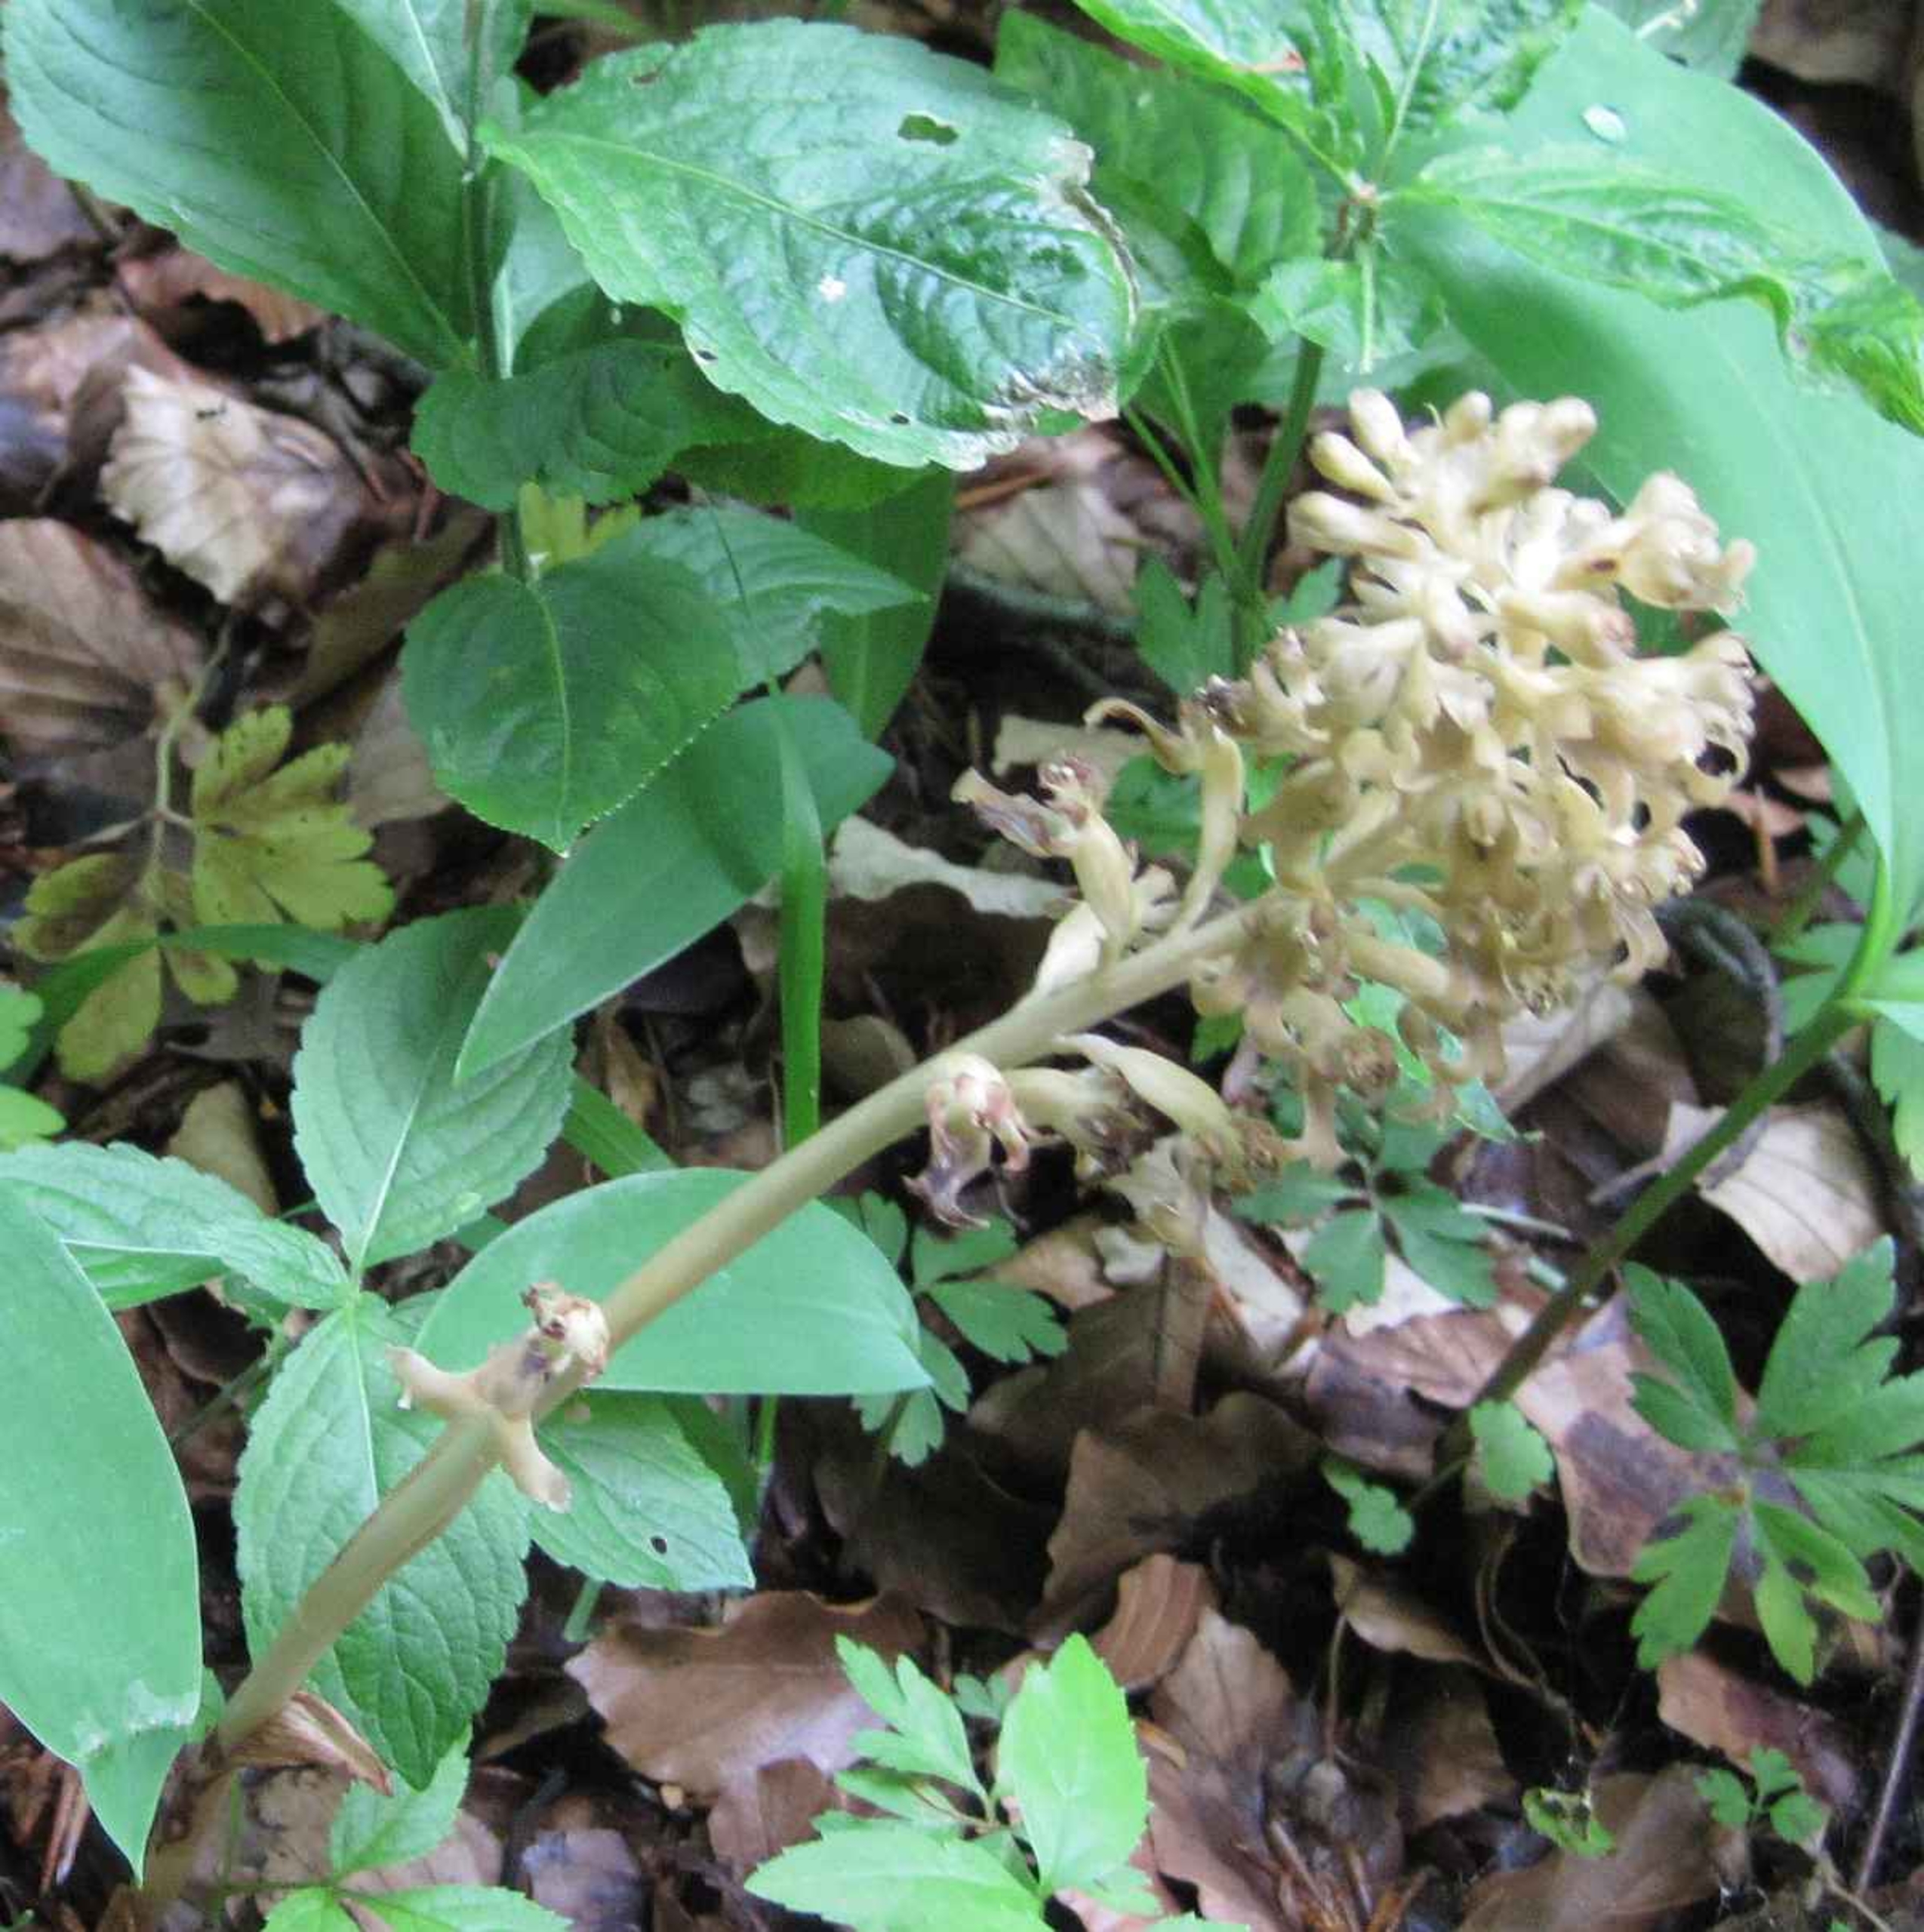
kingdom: Plantae
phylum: Tracheophyta
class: Liliopsida
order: Asparagales
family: Orchidaceae
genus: Neottia
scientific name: Neottia nidus-avis
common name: Rederod
